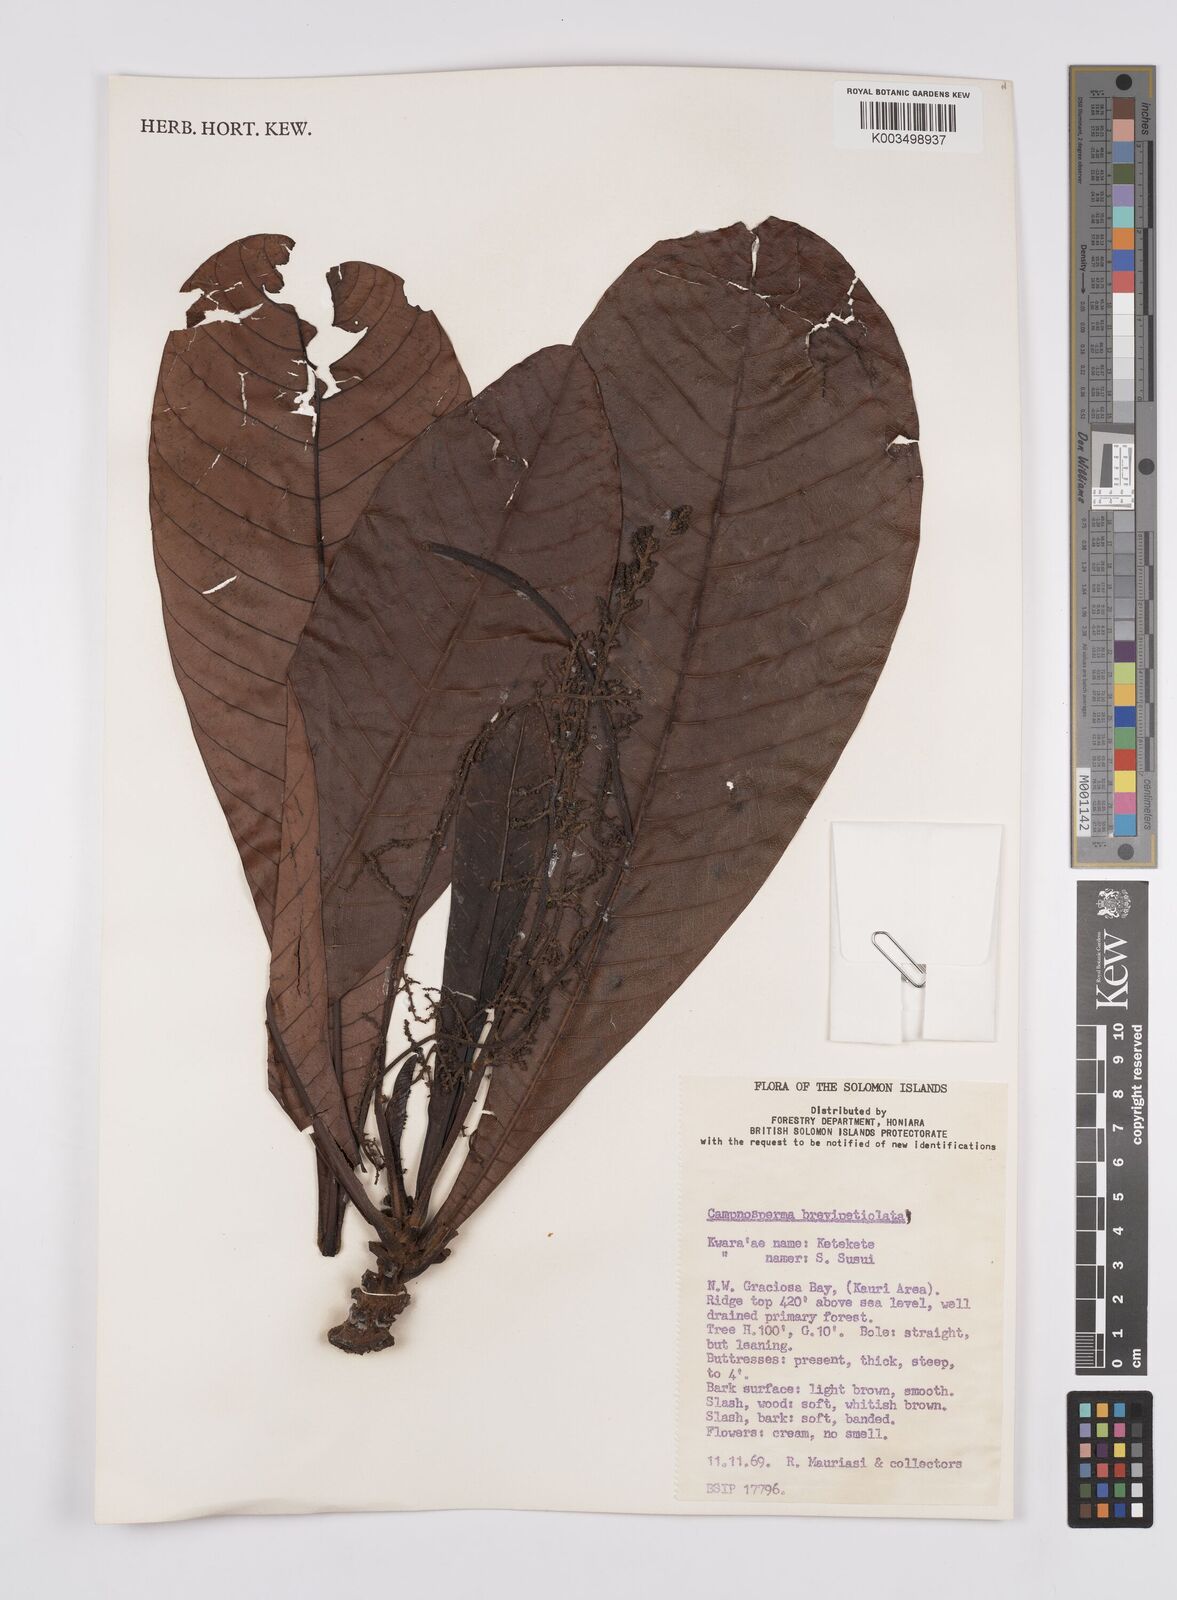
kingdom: Plantae
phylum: Tracheophyta
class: Magnoliopsida
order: Sapindales
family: Anacardiaceae
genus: Campnosperma
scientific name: Campnosperma brevipetiolatum
